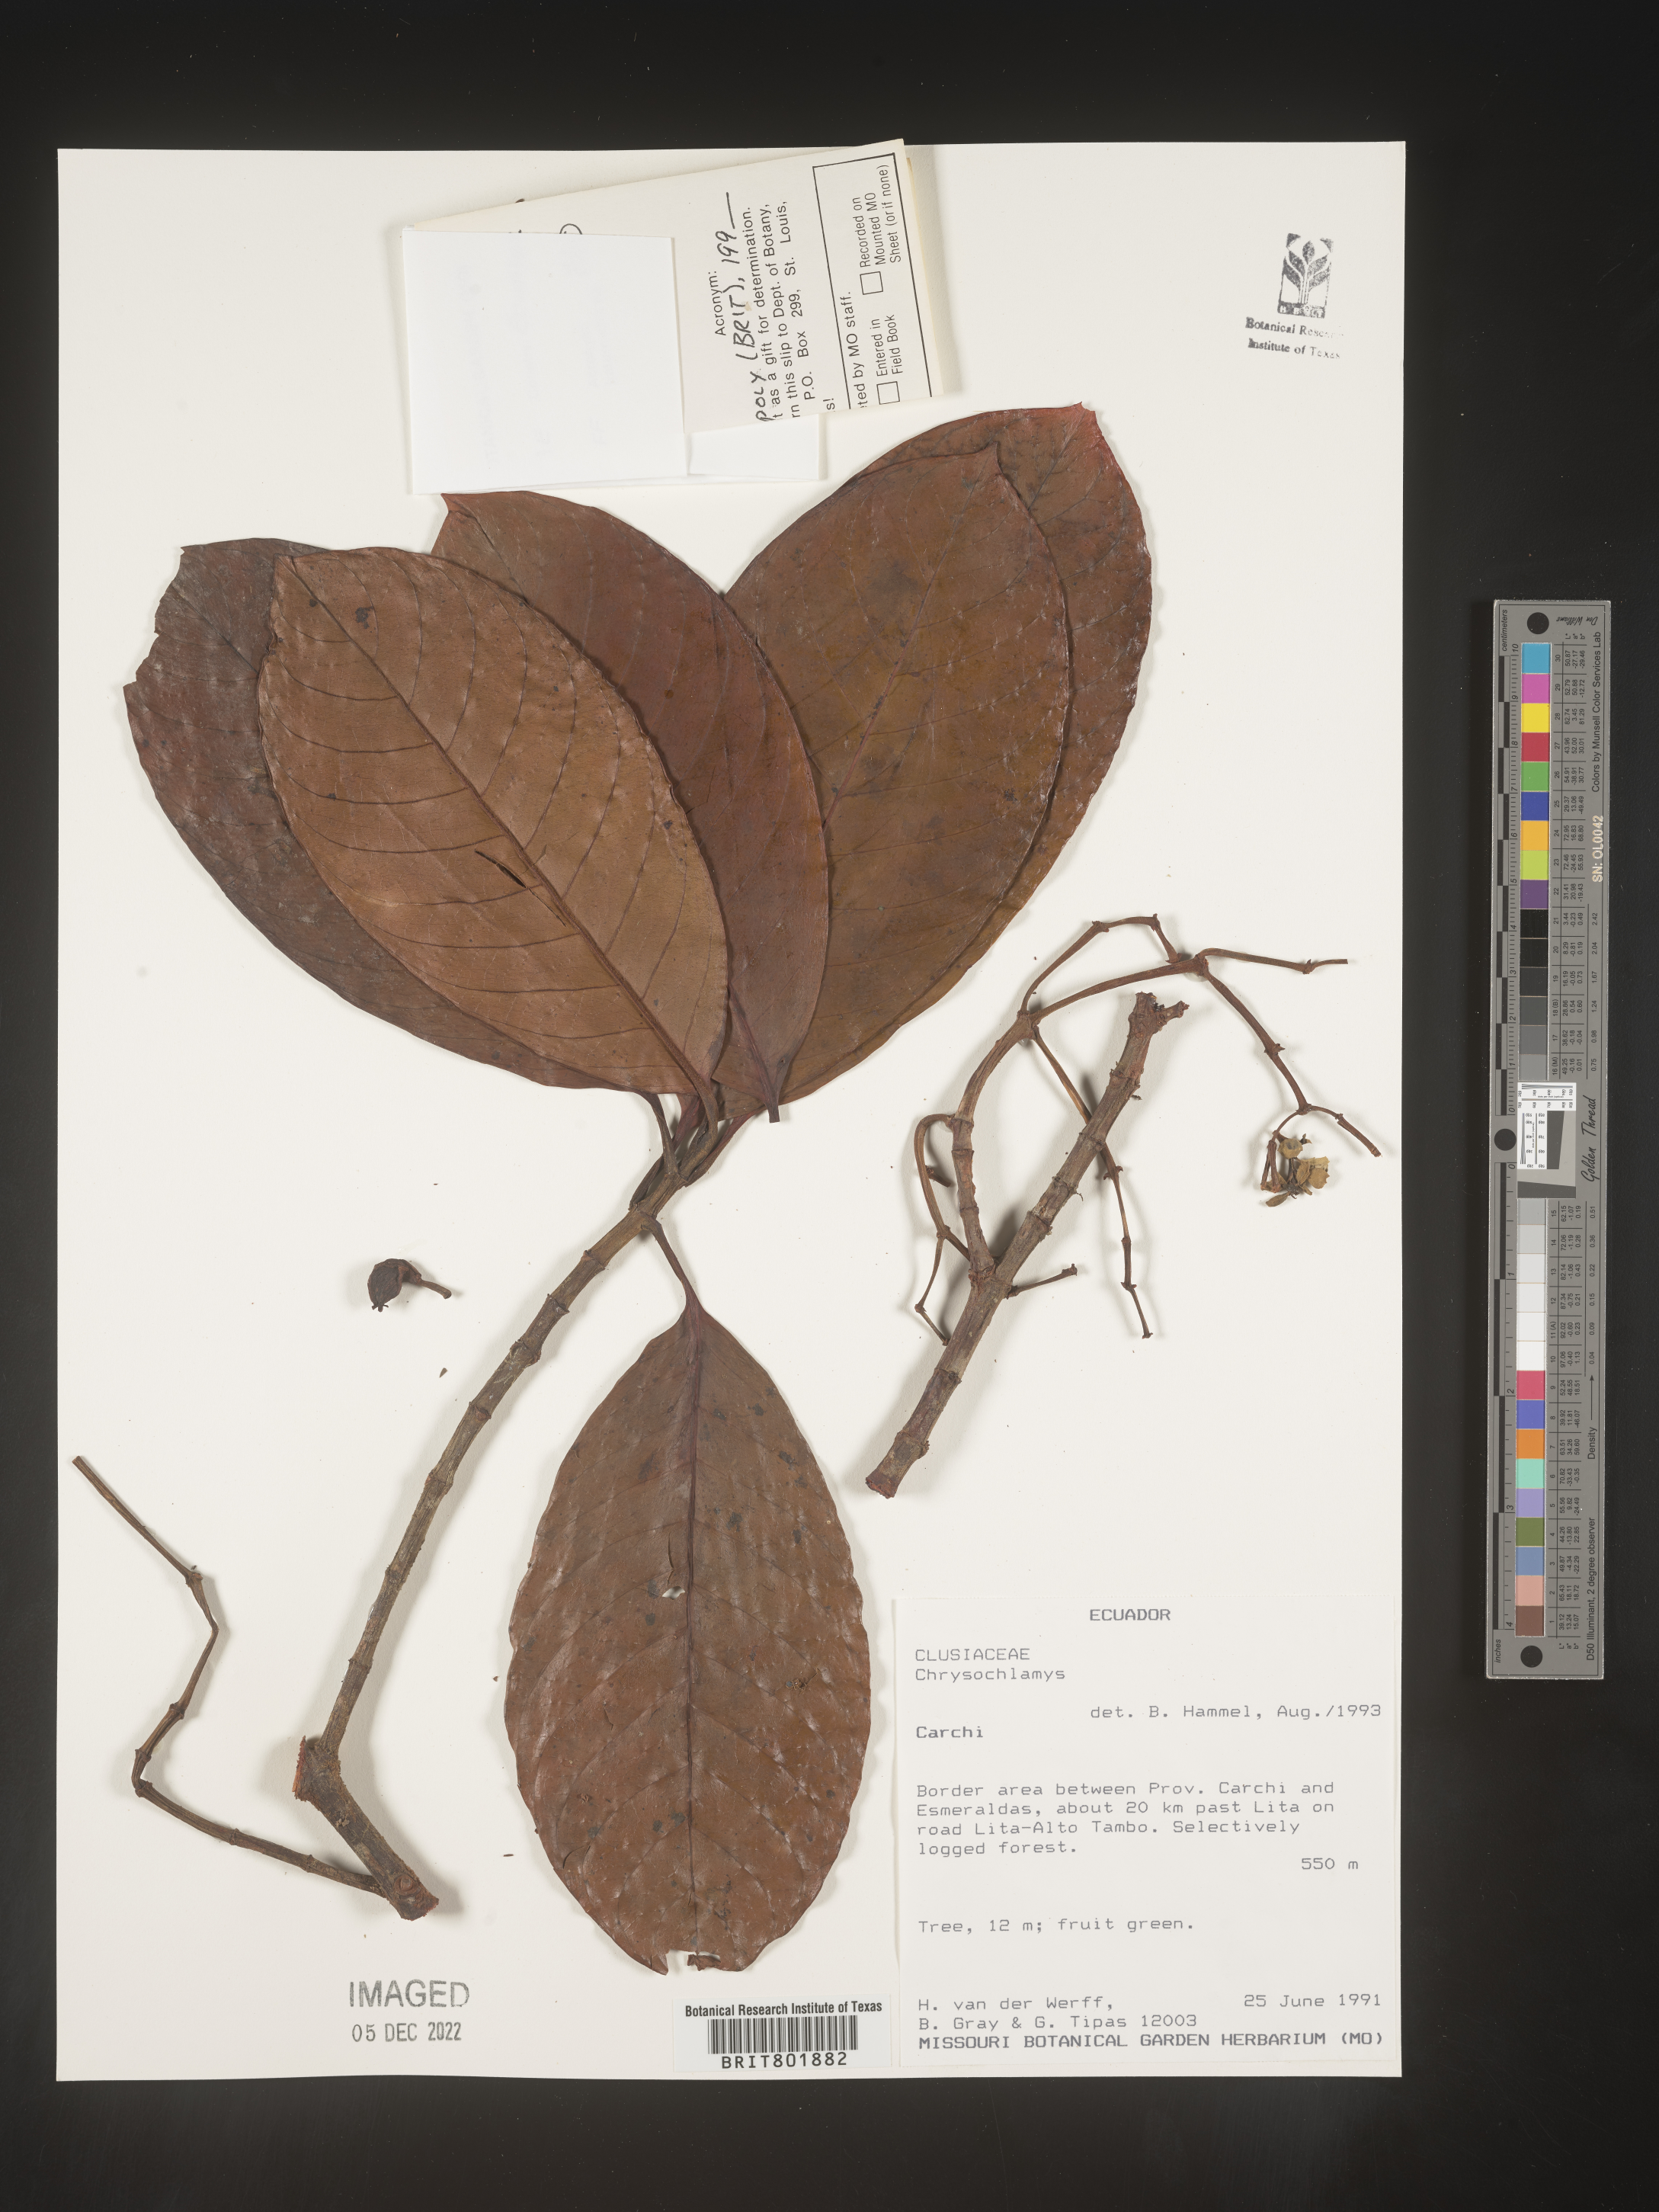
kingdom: Plantae
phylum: Tracheophyta
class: Magnoliopsida
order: Malpighiales
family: Clusiaceae
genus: Chrysochlamys
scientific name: Chrysochlamys
